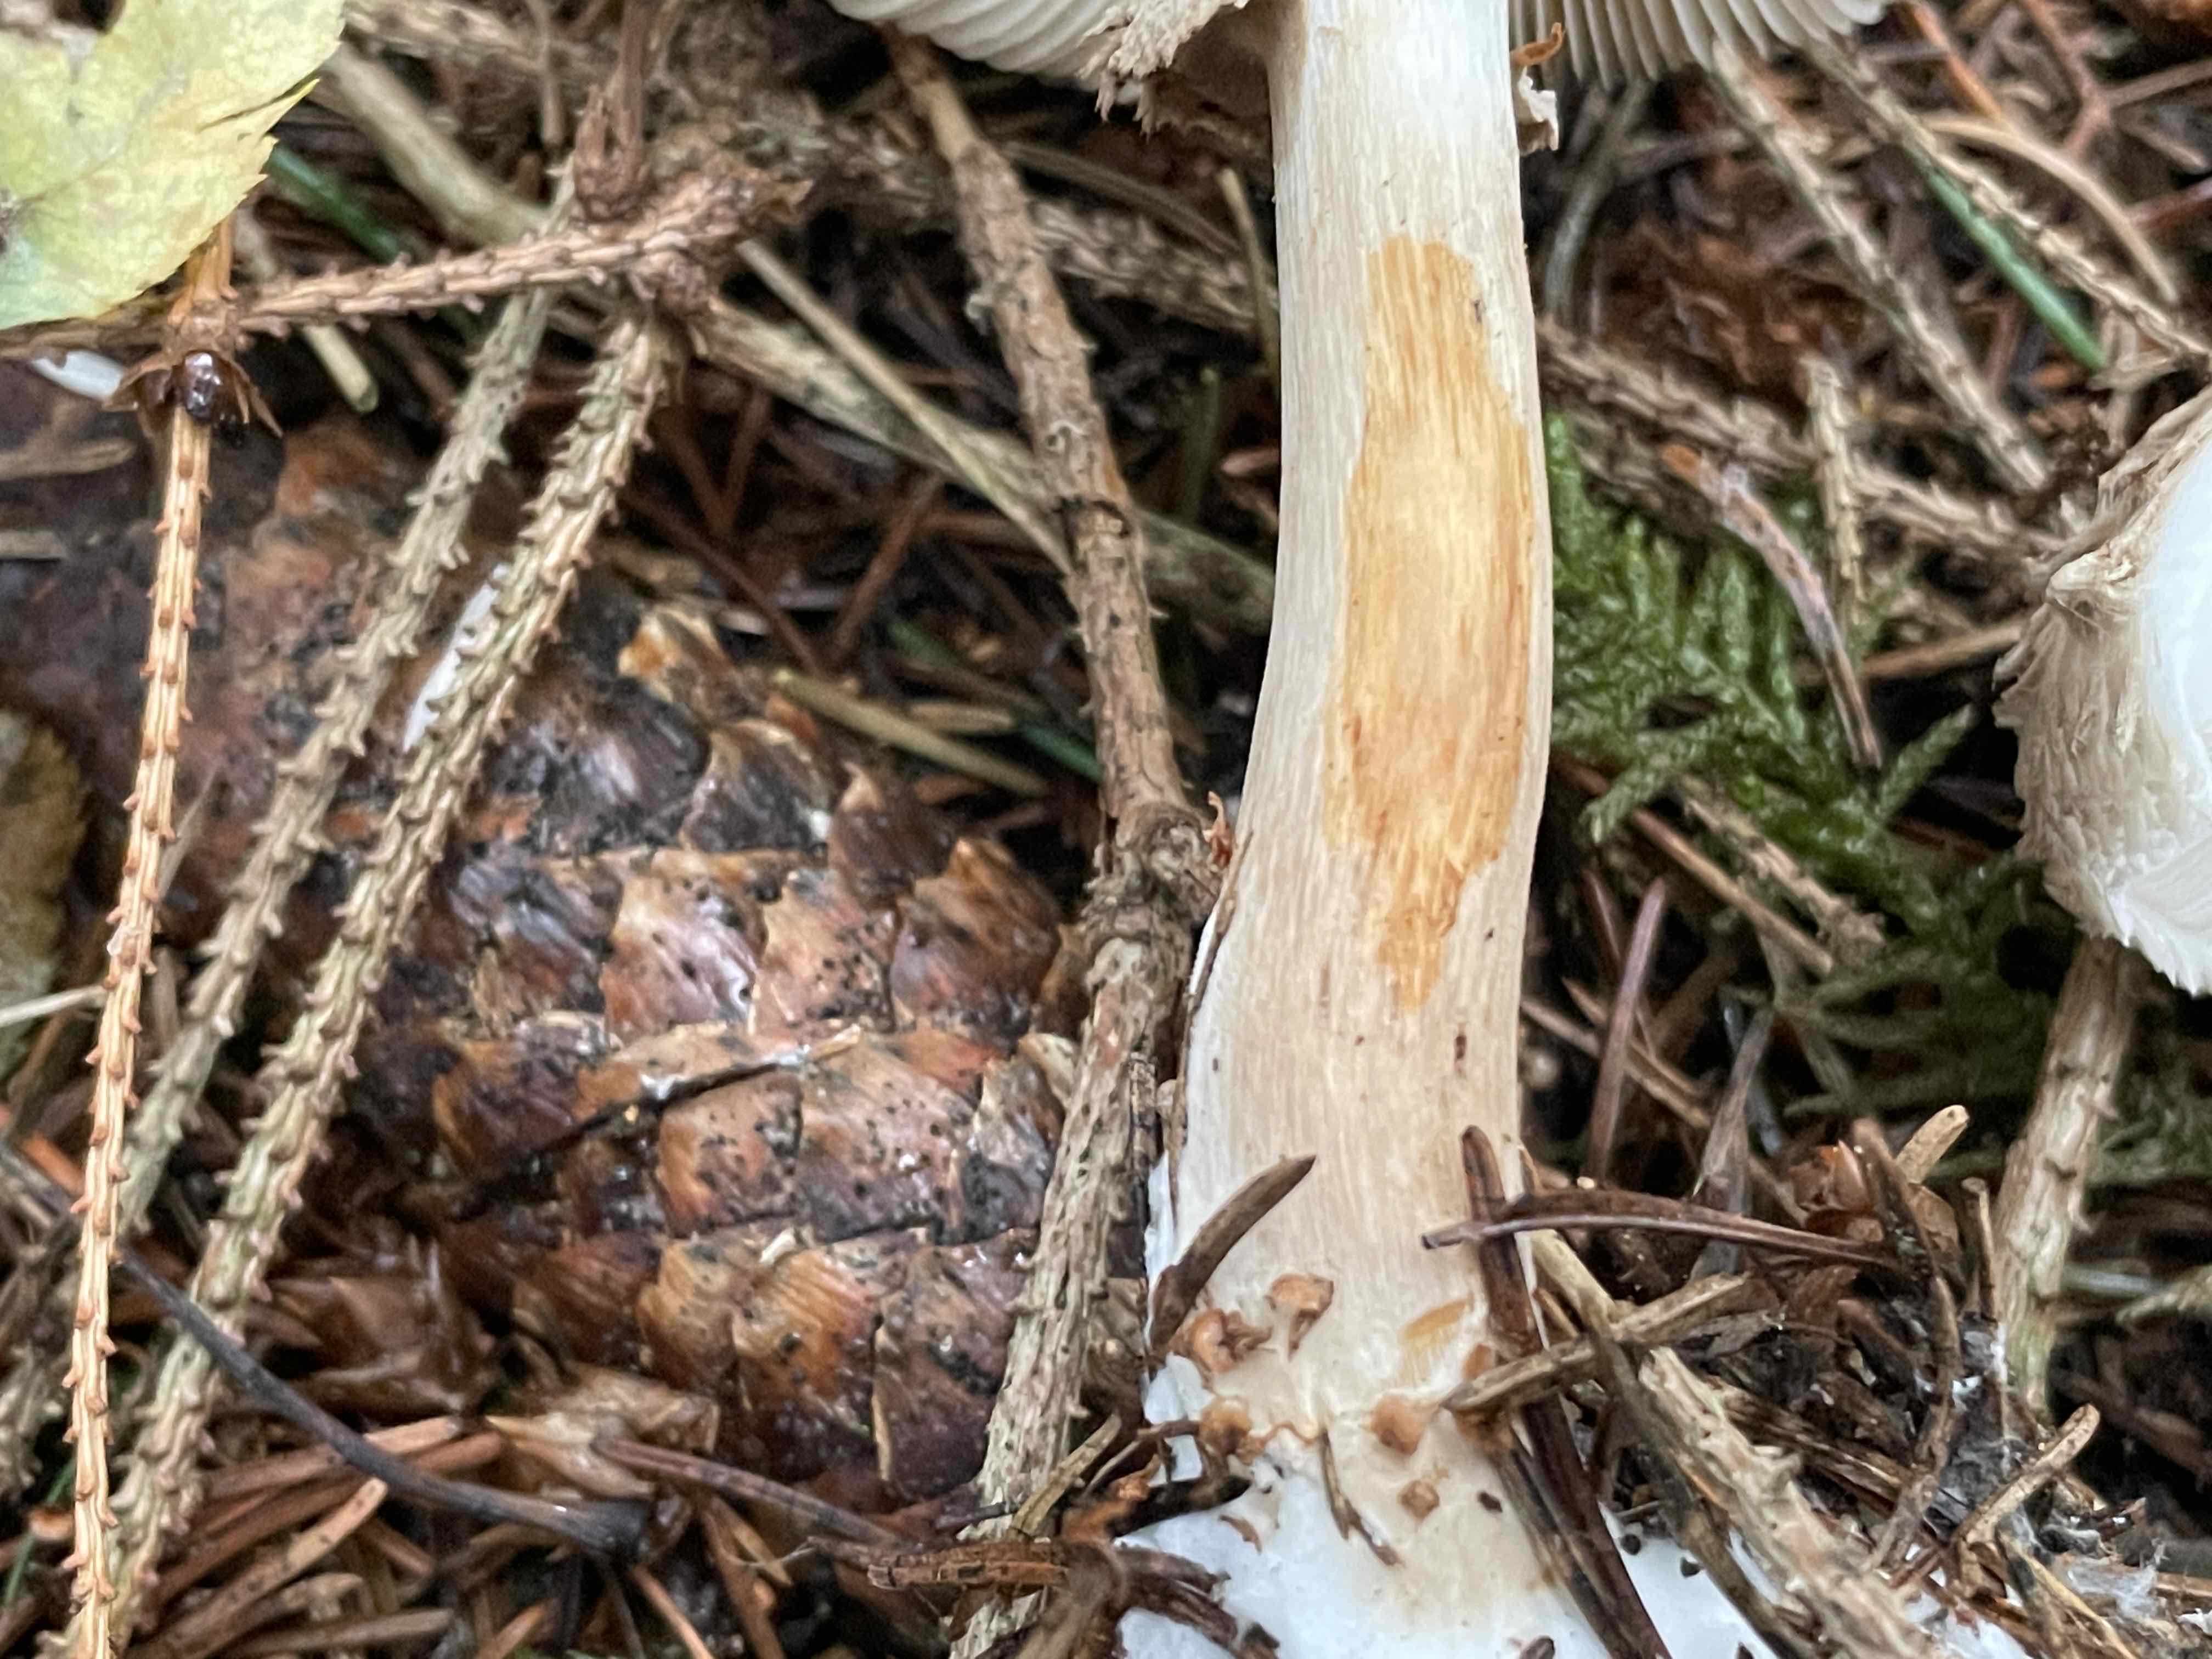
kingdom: Fungi
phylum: Basidiomycota
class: Agaricomycetes
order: Agaricales
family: Agaricaceae
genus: Chlorophyllum
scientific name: Chlorophyllum olivieri
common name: almindelig rabarberhat
